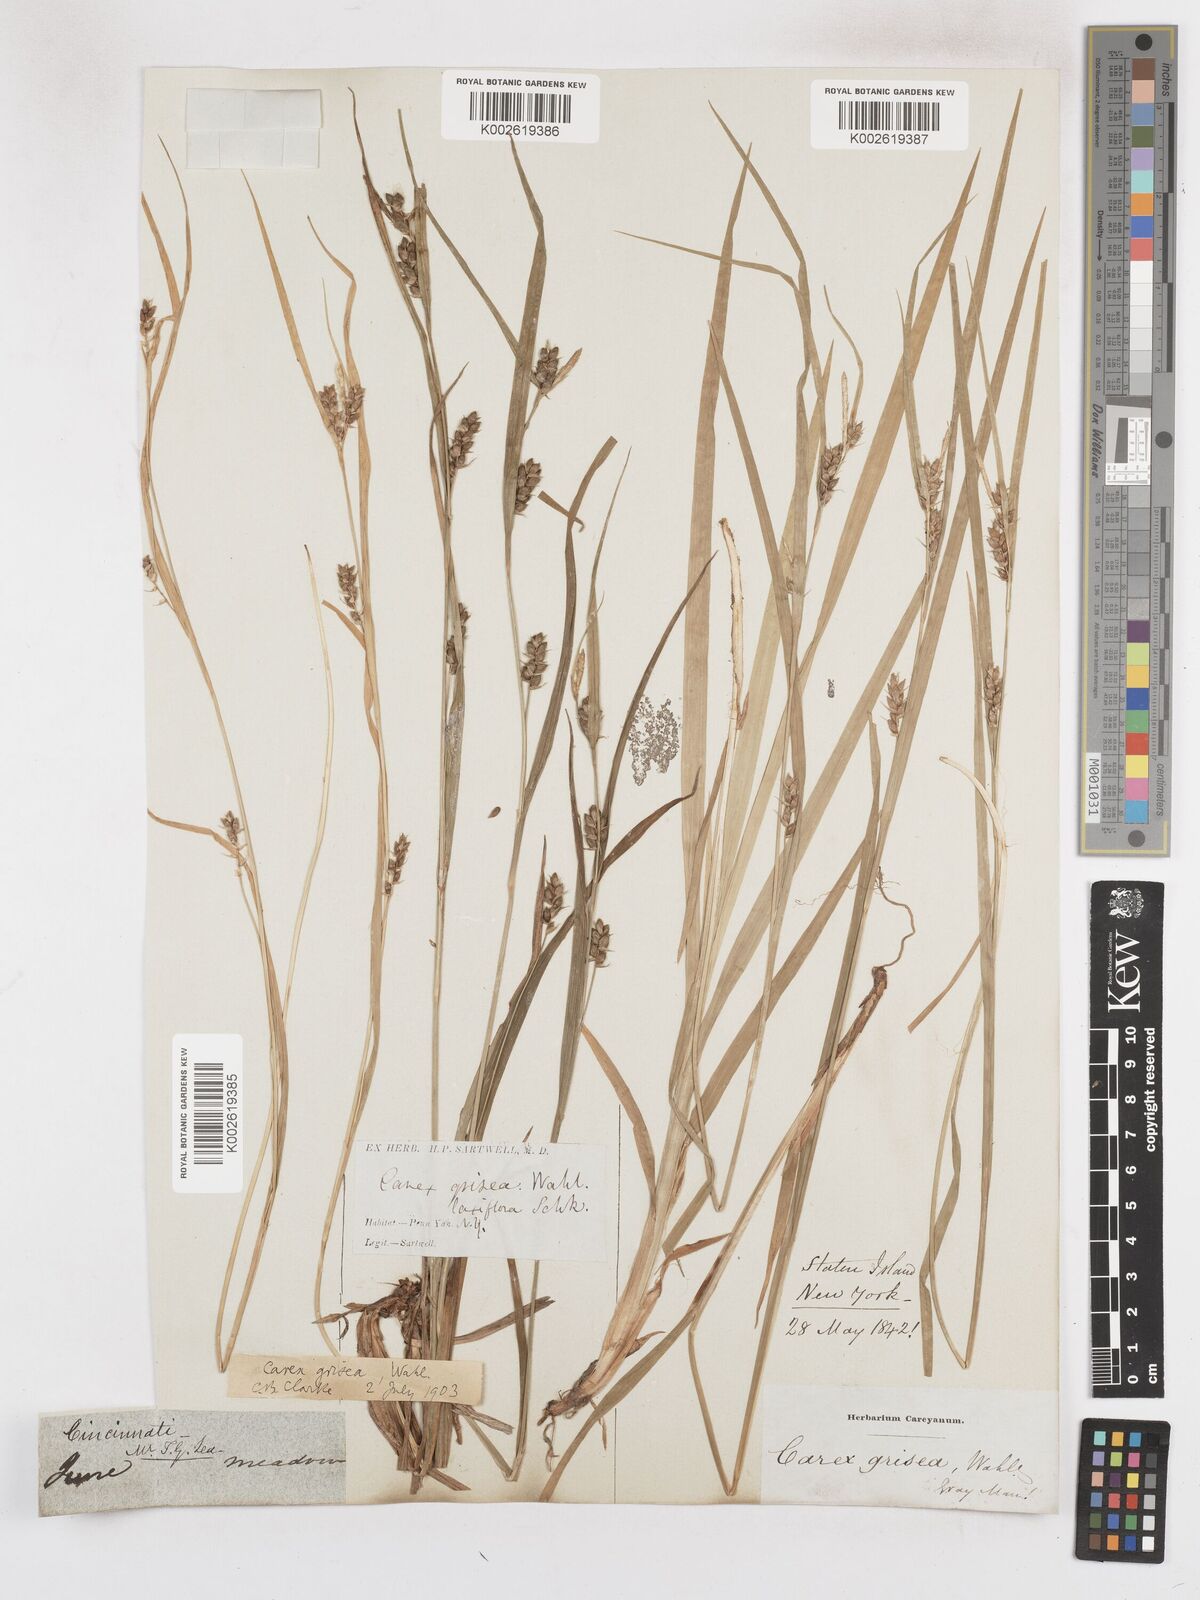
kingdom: Plantae
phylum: Tracheophyta
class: Liliopsida
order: Poales
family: Cyperaceae
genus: Carex
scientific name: Carex grisea
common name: Eastern narrow-leaved sedge
